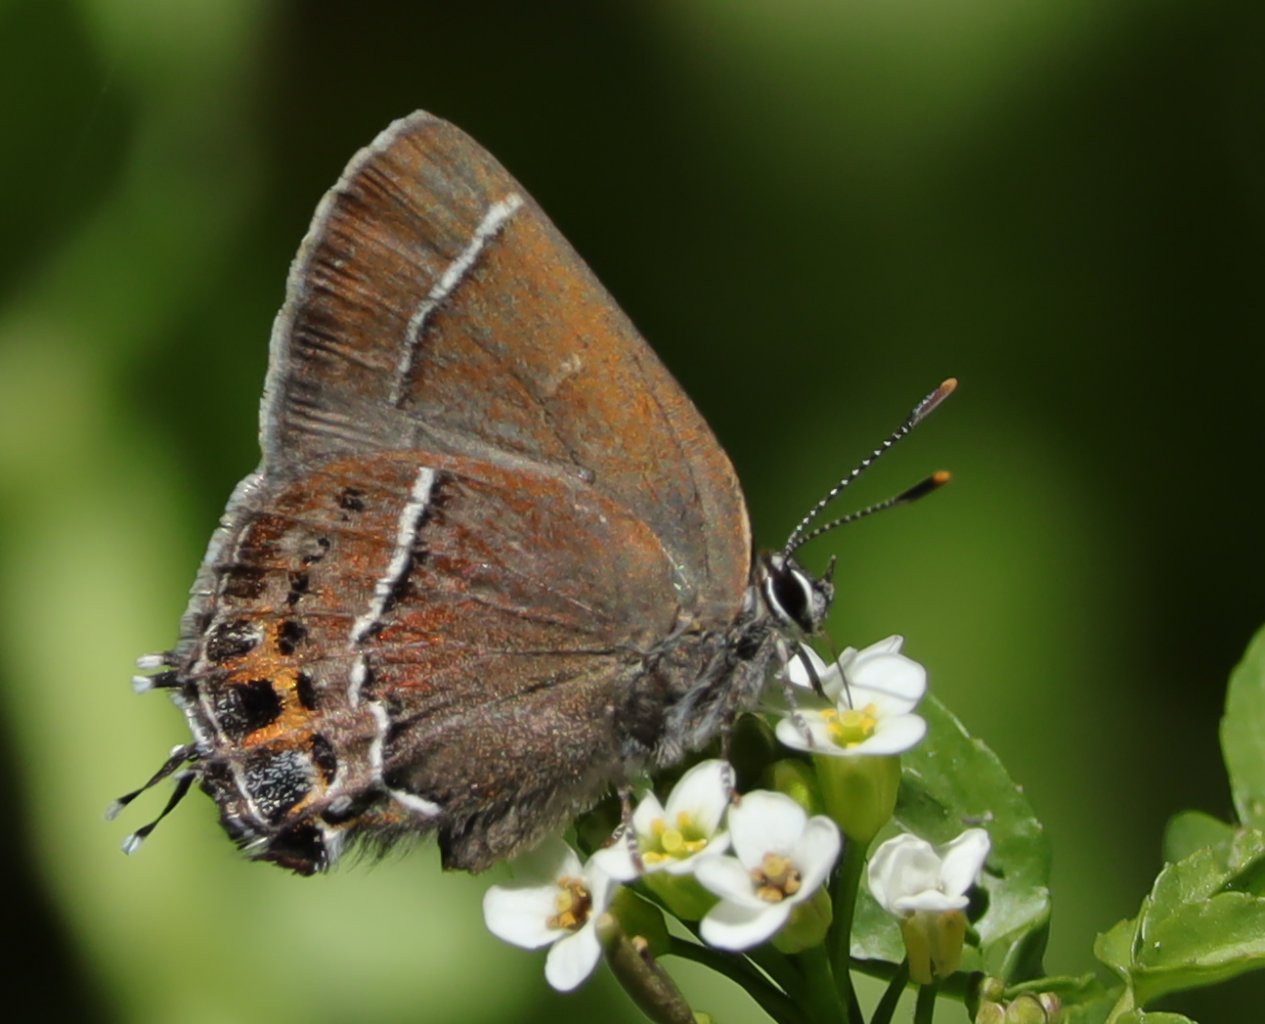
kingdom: Animalia
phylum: Arthropoda
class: Insecta
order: Lepidoptera
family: Lycaenidae
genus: Mitoura
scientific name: Mitoura spinetorum
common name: Thicket Hairstreak
